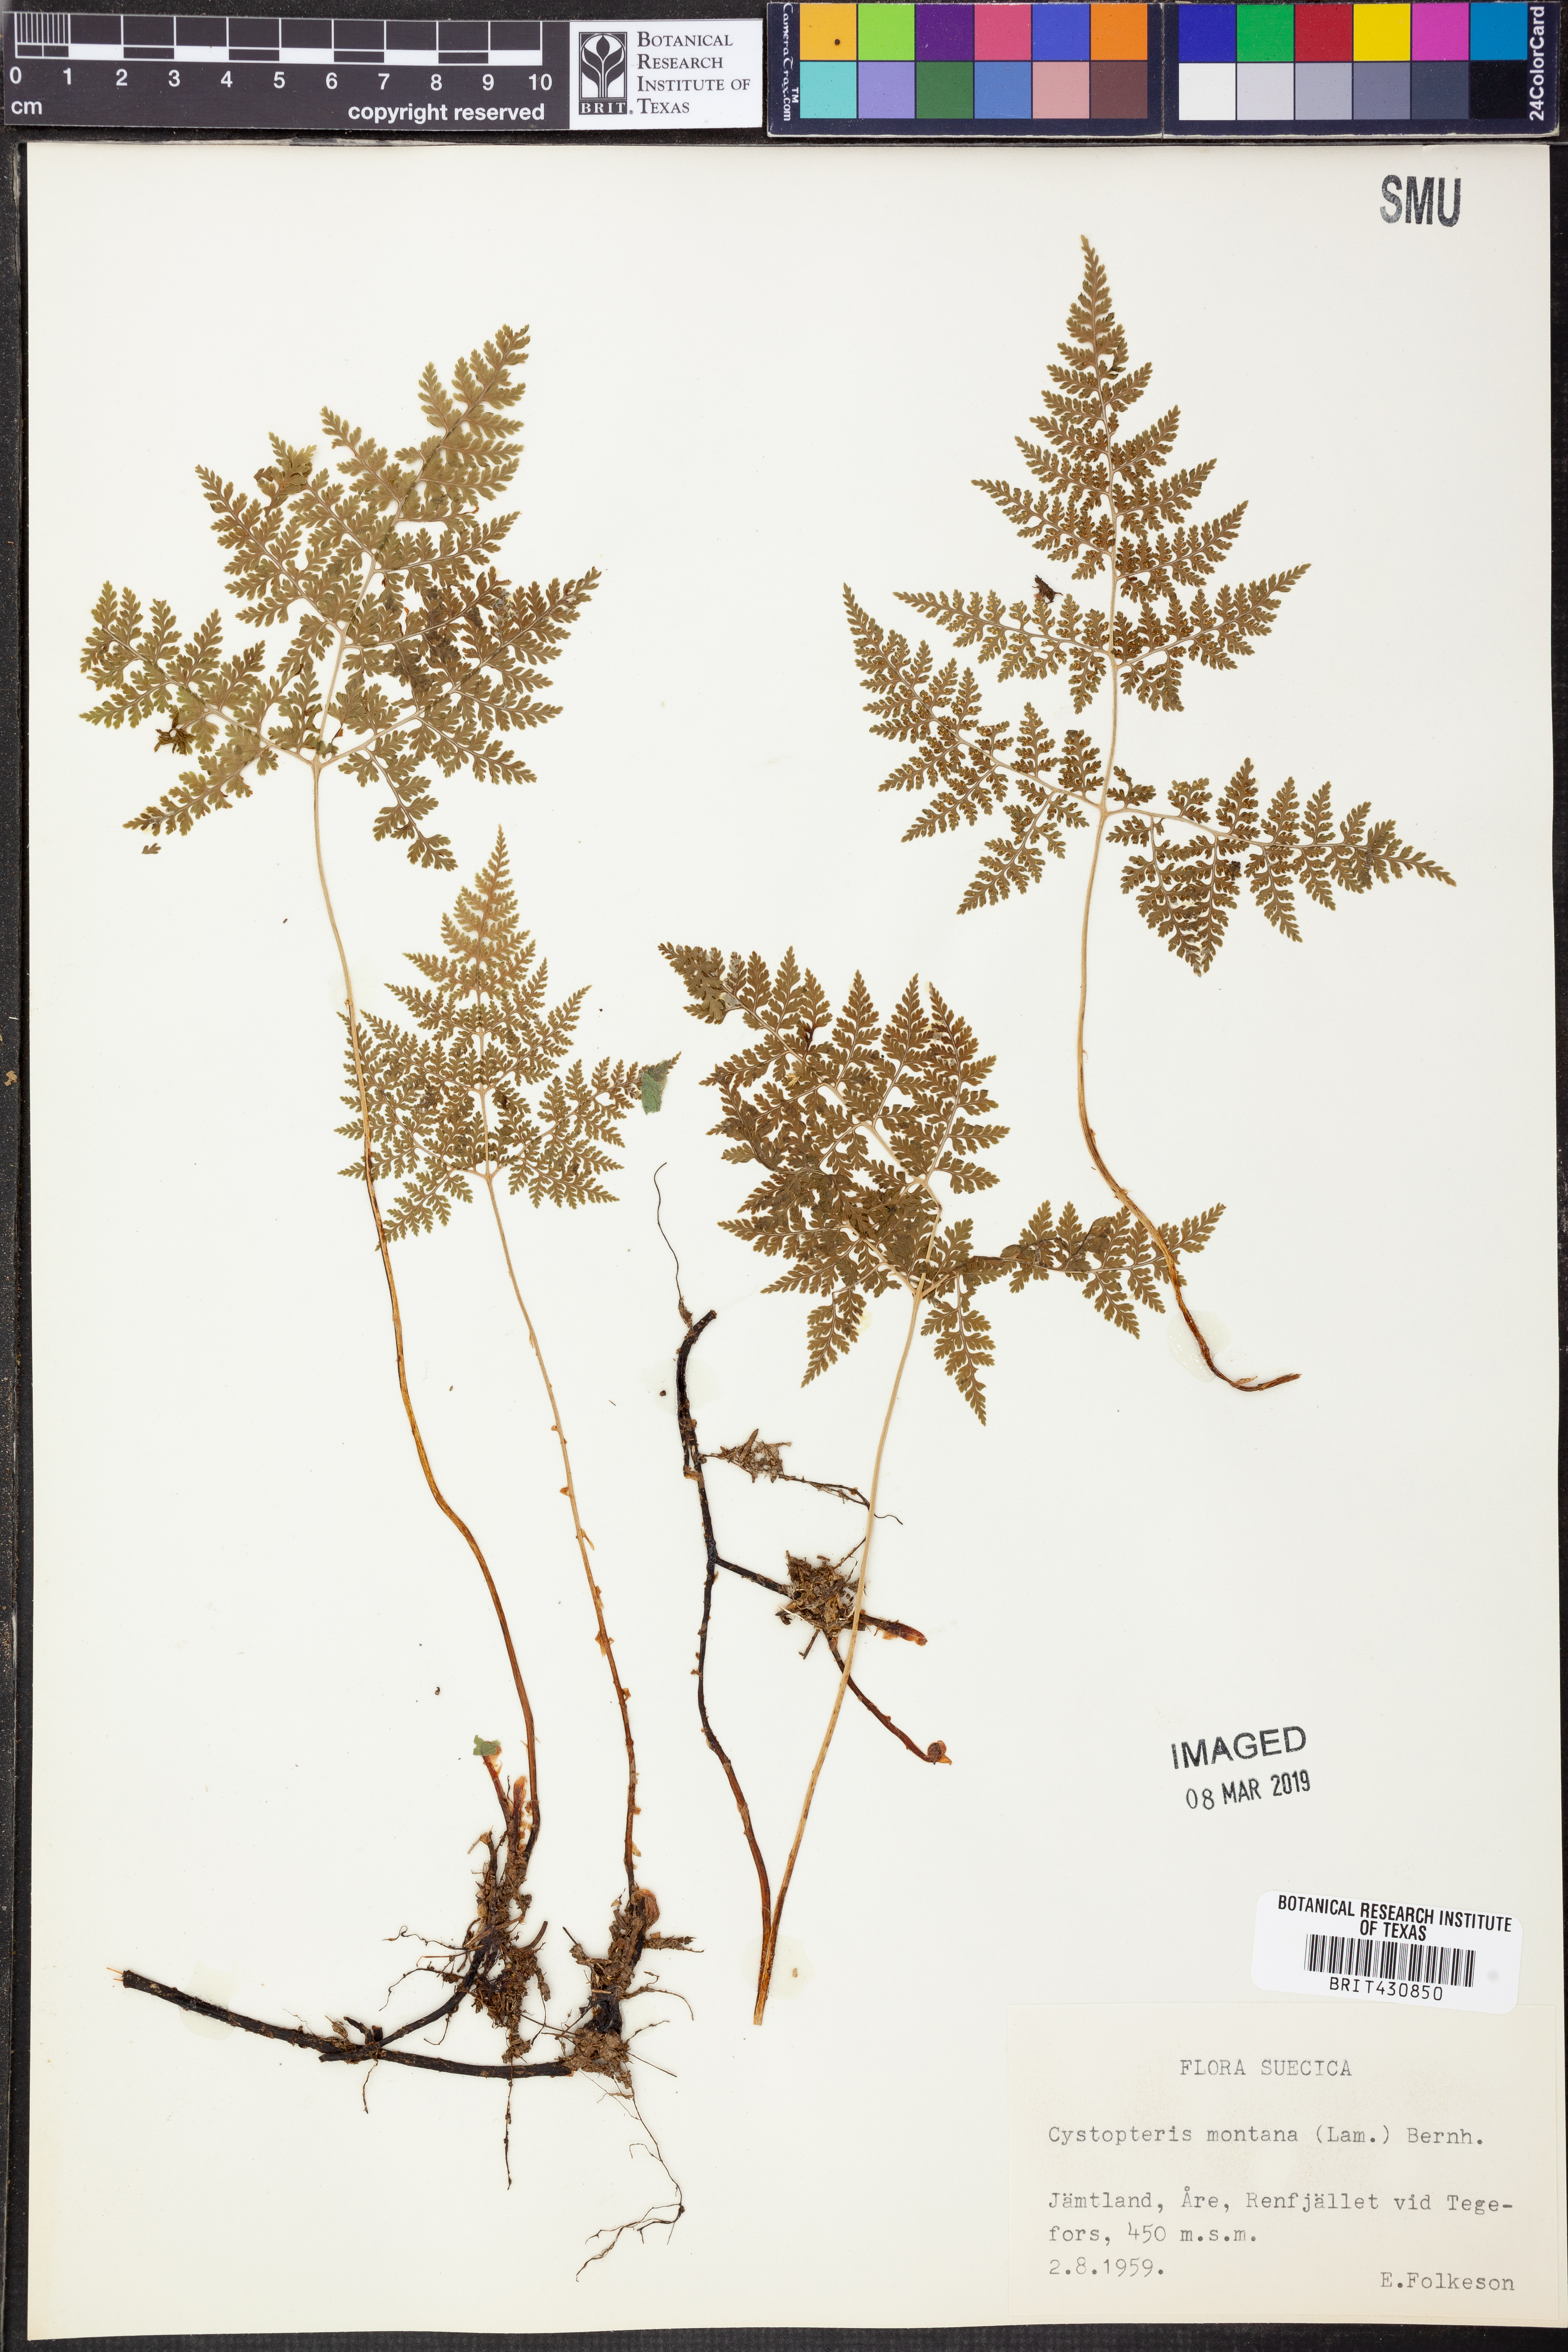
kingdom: Plantae
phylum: Tracheophyta
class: Polypodiopsida
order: Polypodiales
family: Cystopteridaceae
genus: Cystopteris
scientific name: Cystopteris montana
